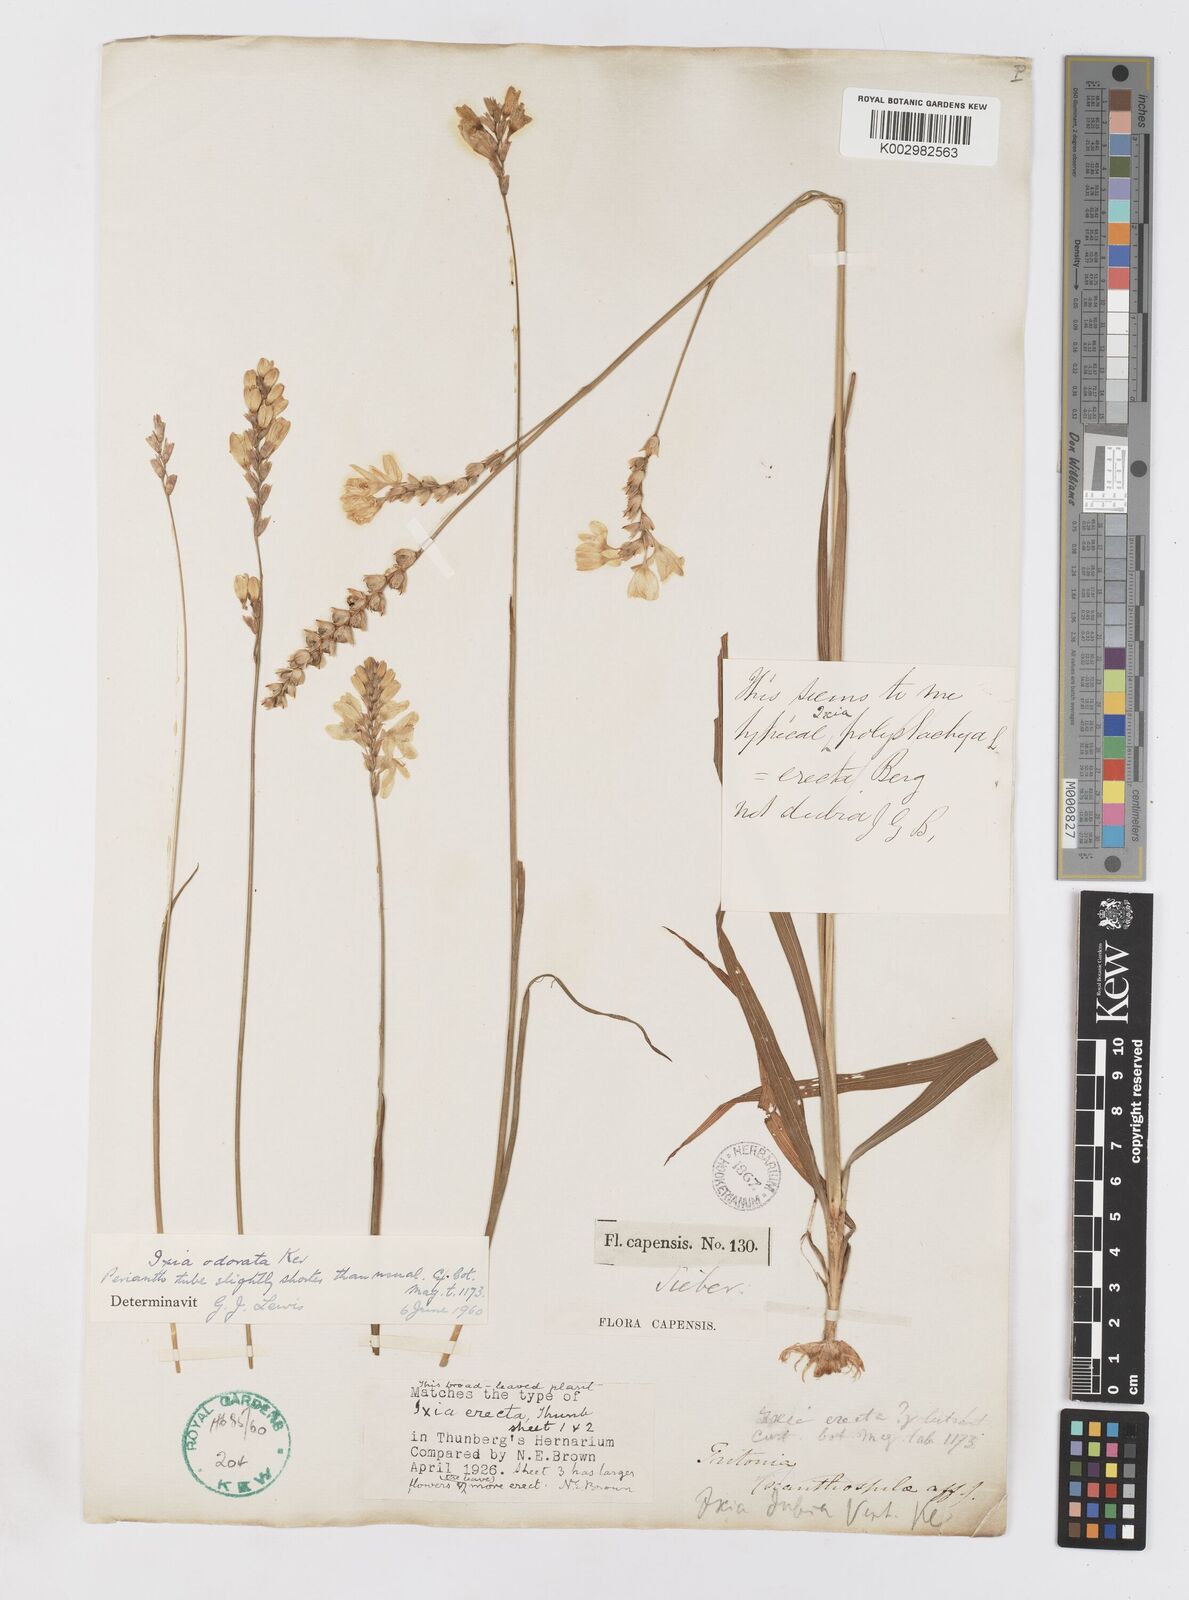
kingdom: Plantae
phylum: Tracheophyta
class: Liliopsida
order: Asparagales
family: Iridaceae
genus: Ixia
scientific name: Ixia odorata
